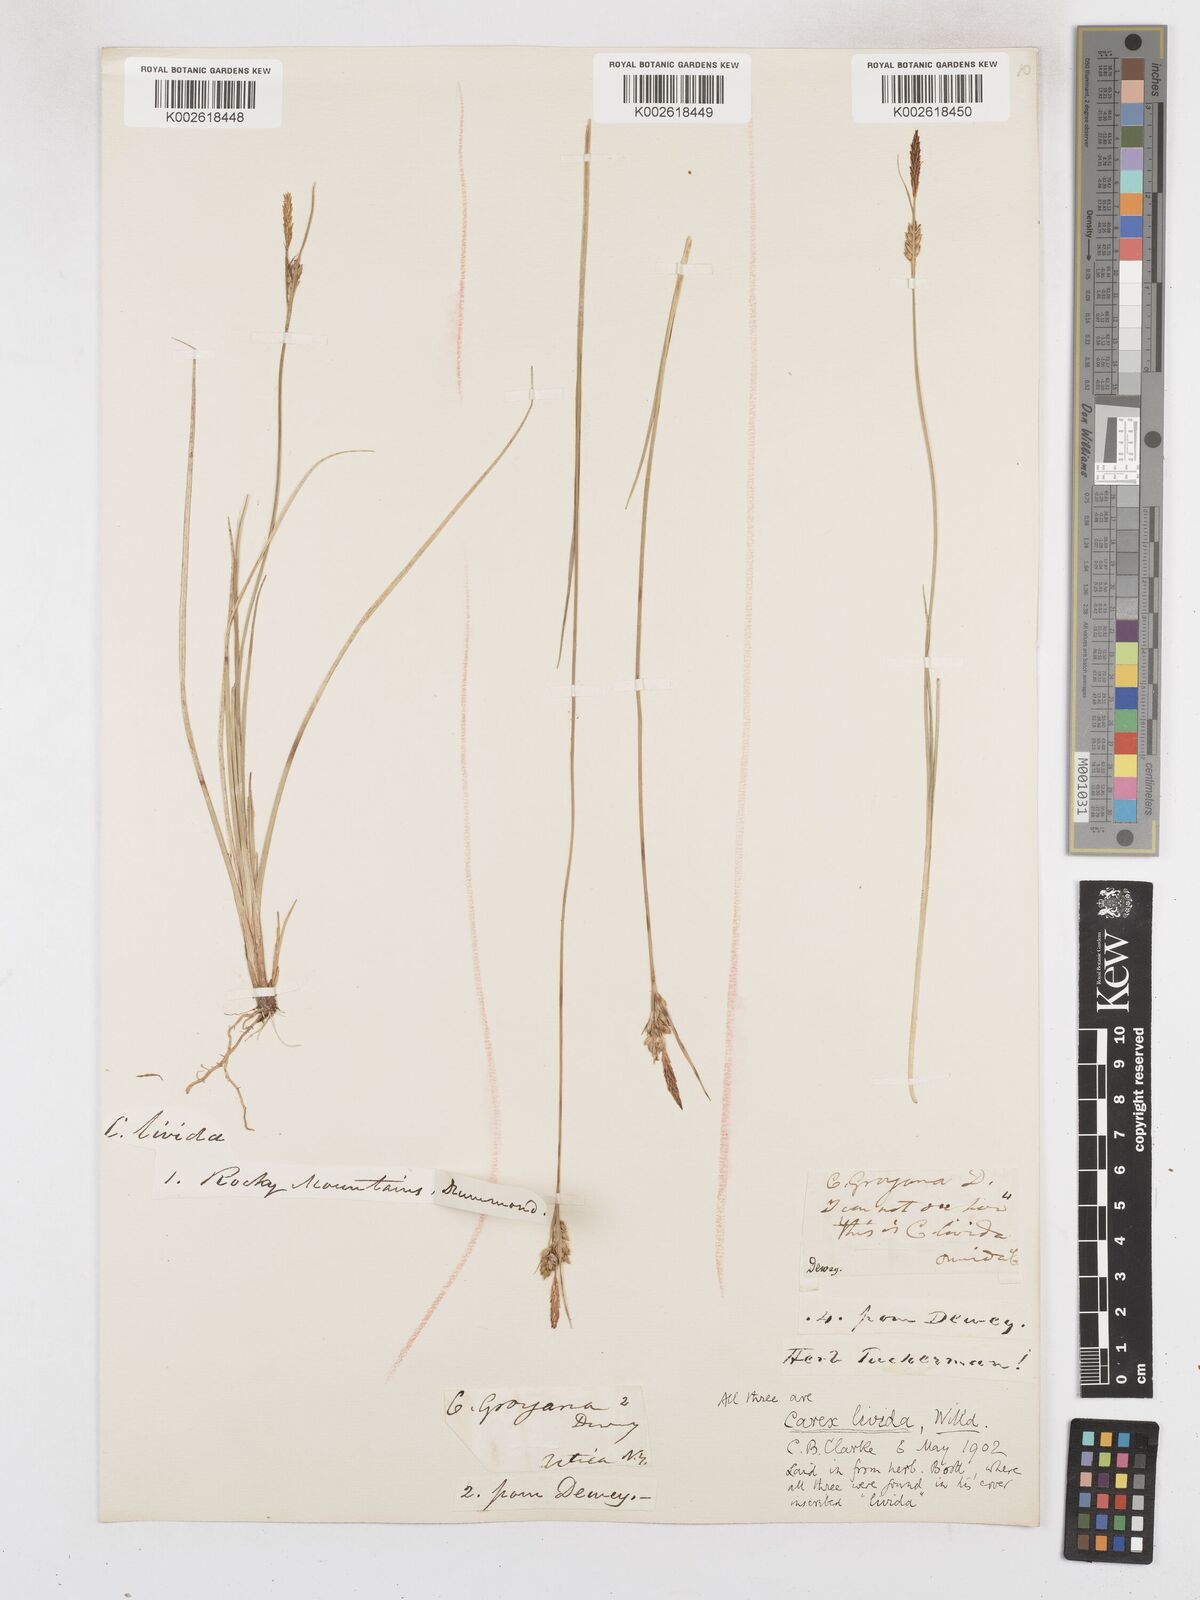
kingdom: Plantae
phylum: Tracheophyta
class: Liliopsida
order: Poales
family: Cyperaceae
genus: Carex
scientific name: Carex livida
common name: Livid sedge
